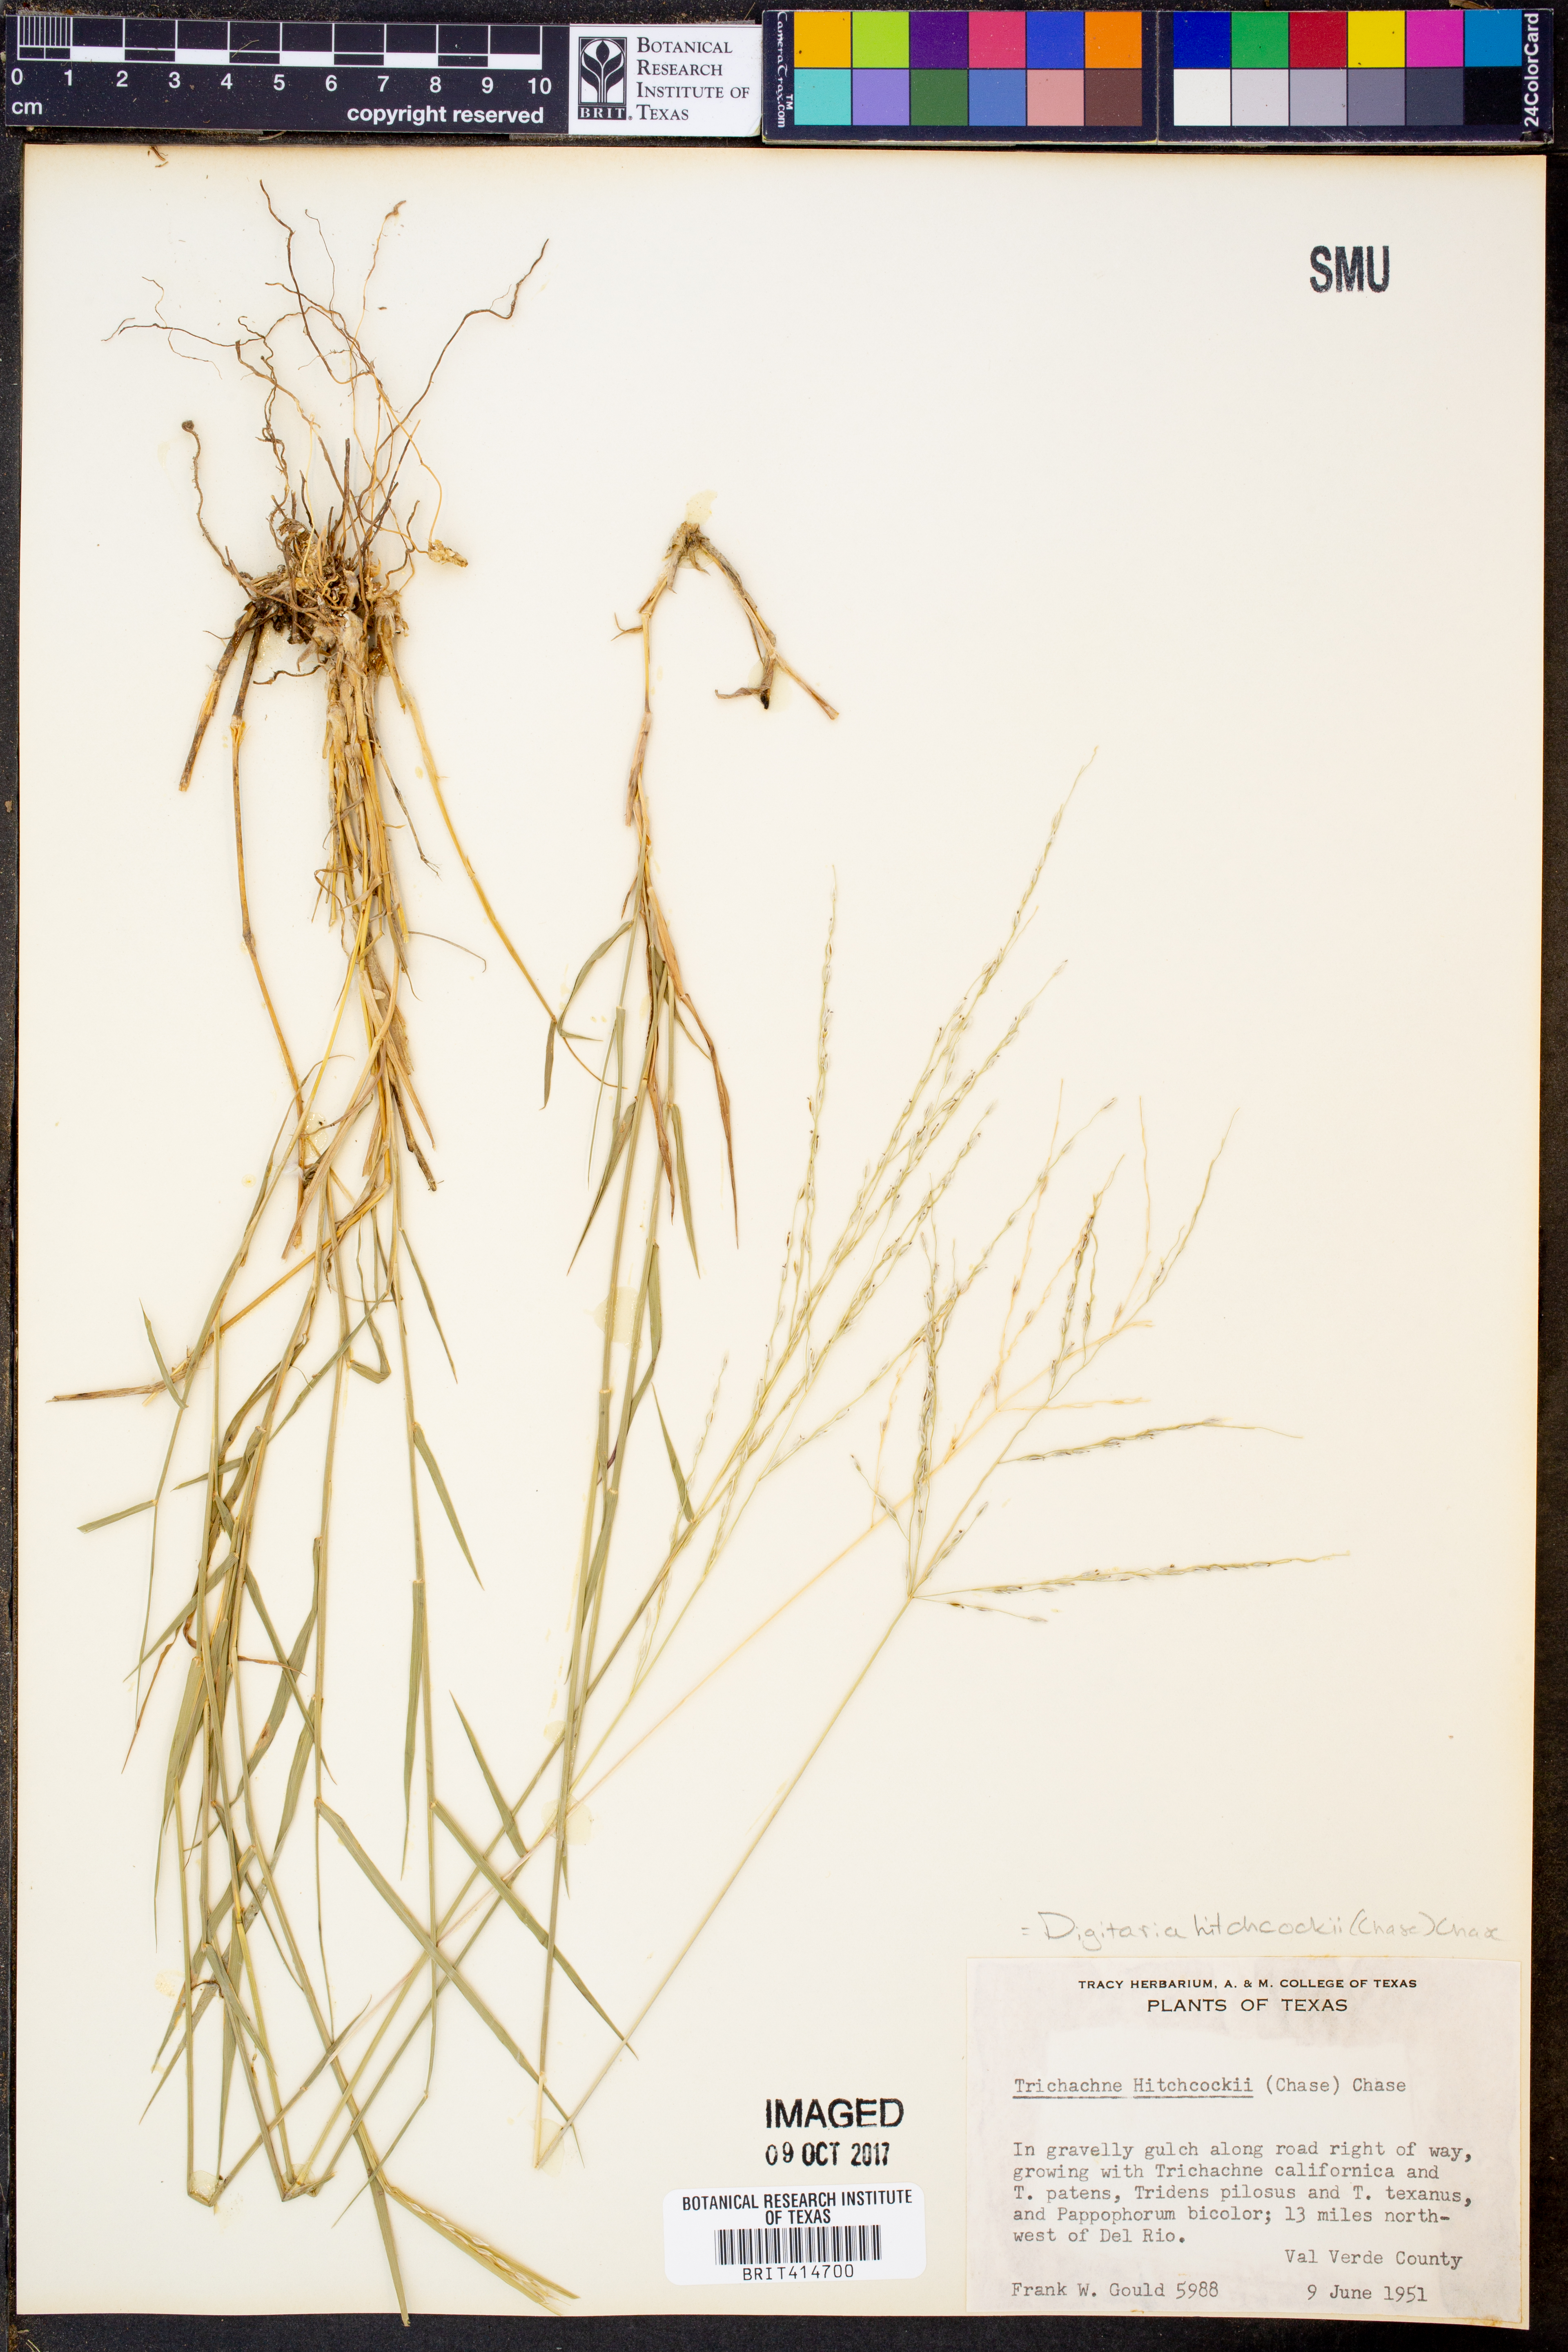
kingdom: Plantae
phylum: Tracheophyta
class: Liliopsida
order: Poales
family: Poaceae
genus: Digitaria
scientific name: Digitaria hitchcockii
